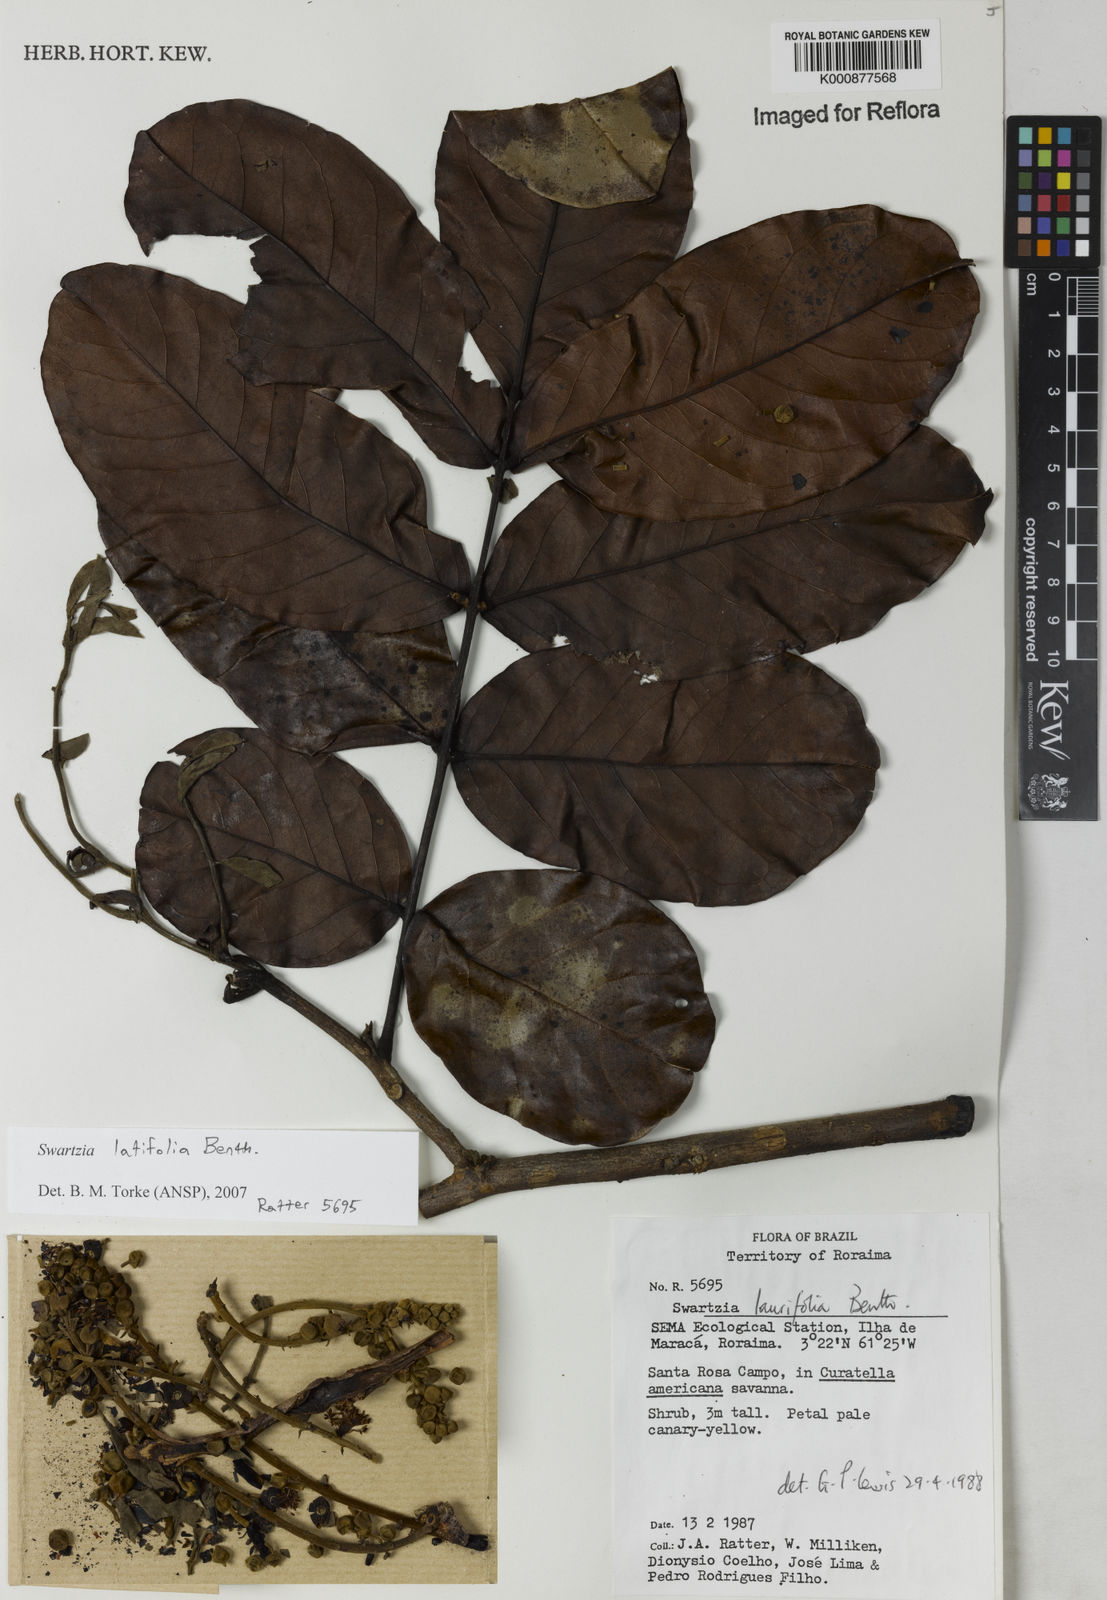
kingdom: Plantae
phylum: Tracheophyta
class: Magnoliopsida
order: Fabales
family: Fabaceae
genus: Swartzia
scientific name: Swartzia latifolia
